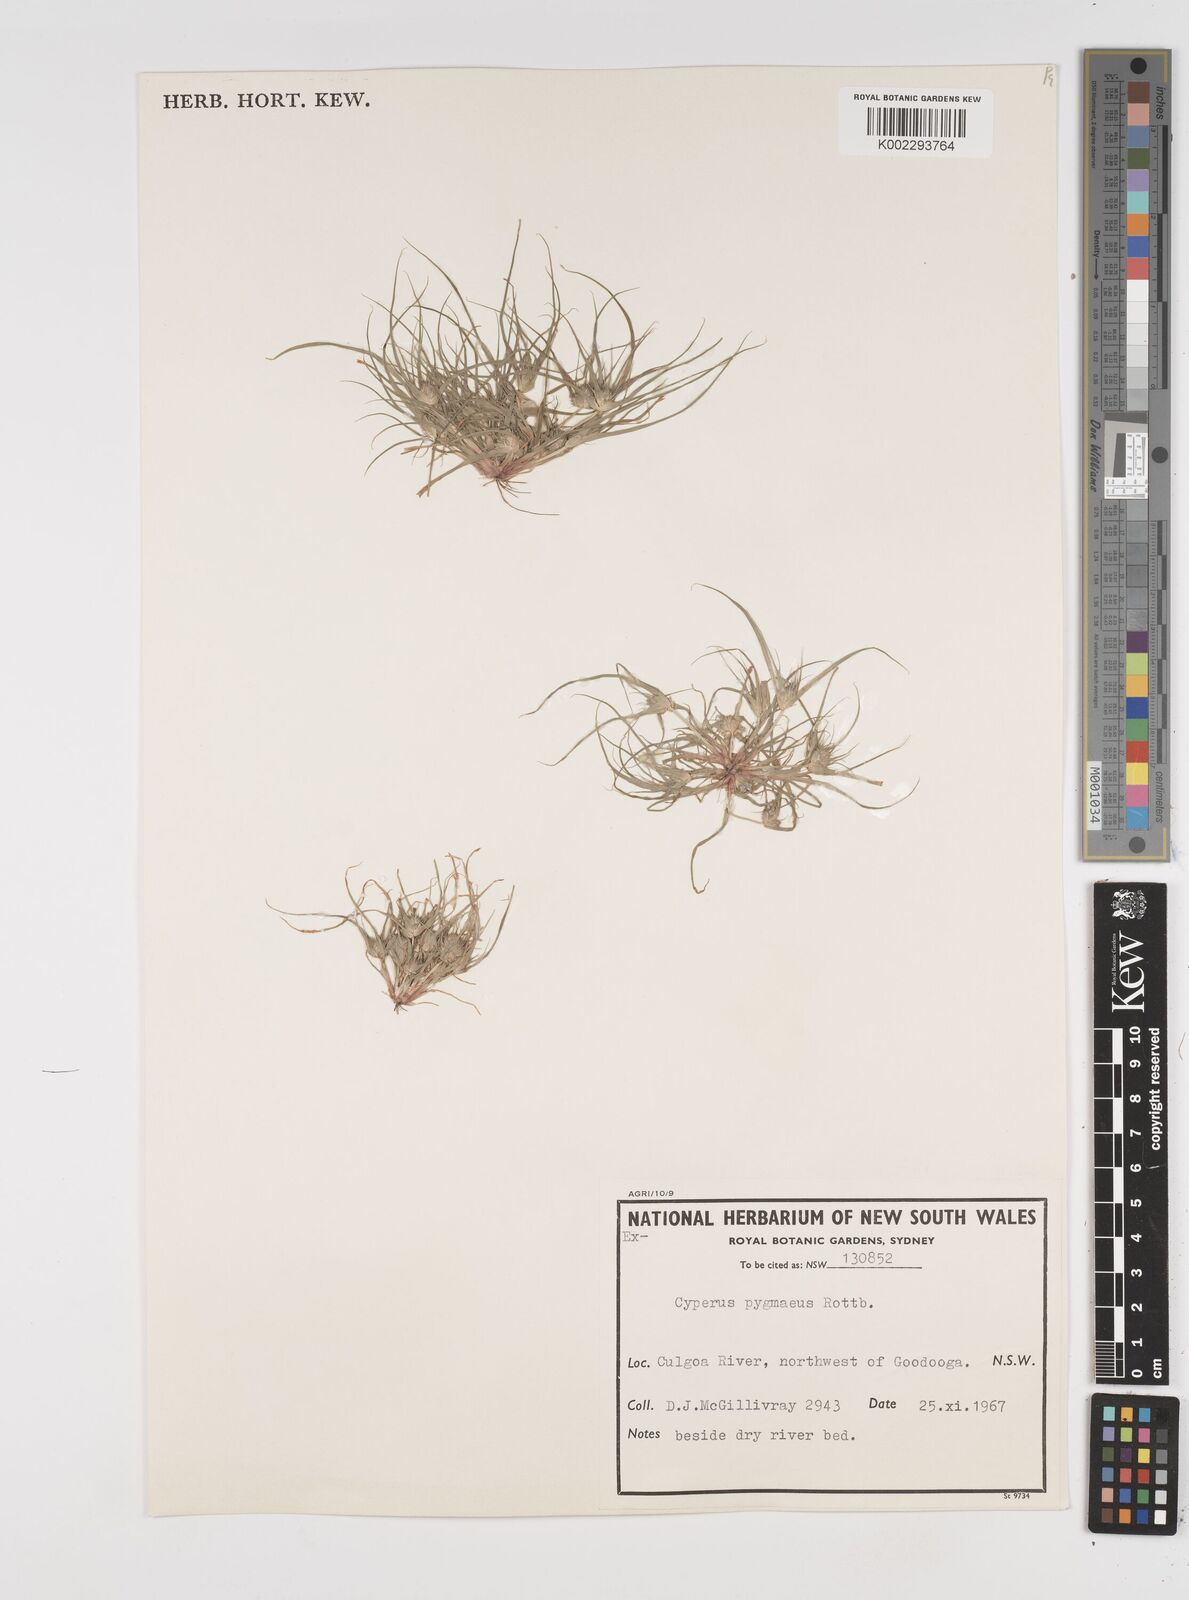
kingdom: Plantae
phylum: Tracheophyta
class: Liliopsida
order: Poales
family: Cyperaceae
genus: Cyperus
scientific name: Cyperus michelianus
